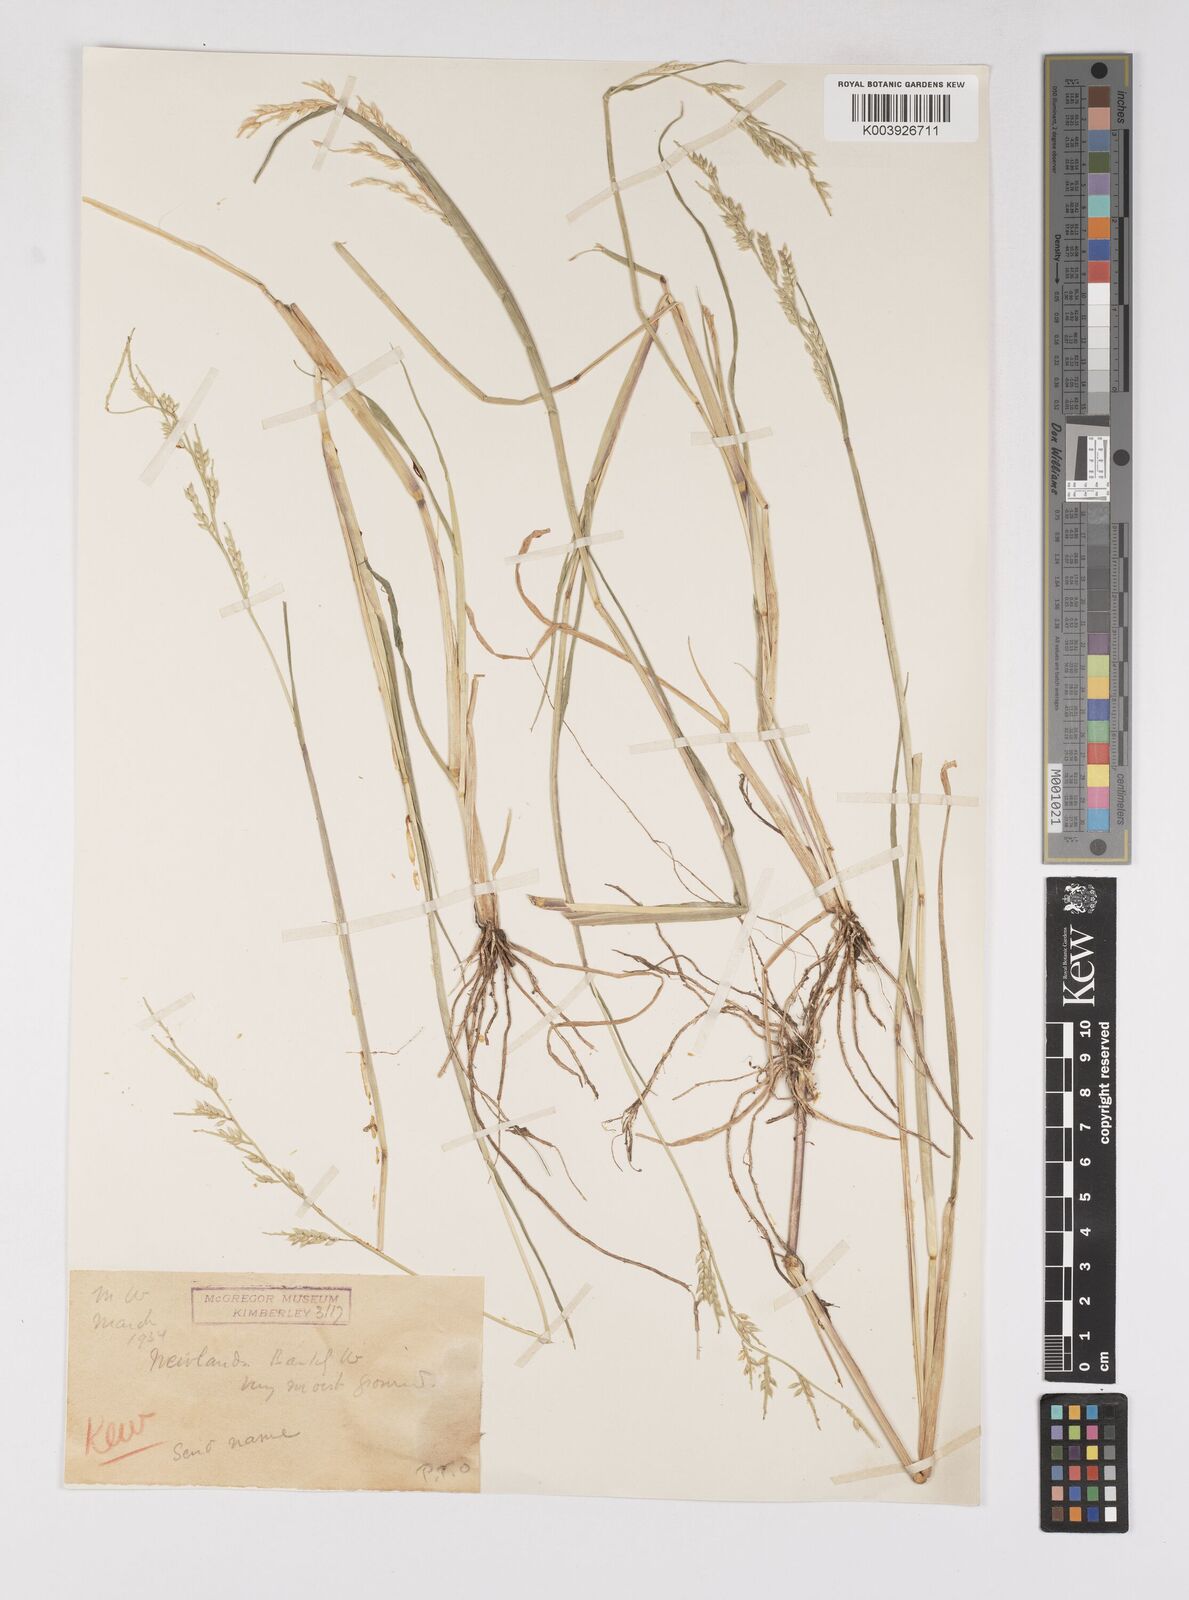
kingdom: Plantae
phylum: Tracheophyta
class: Liliopsida
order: Poales
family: Poaceae
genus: Eriochloa
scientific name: Eriochloa barbatus
